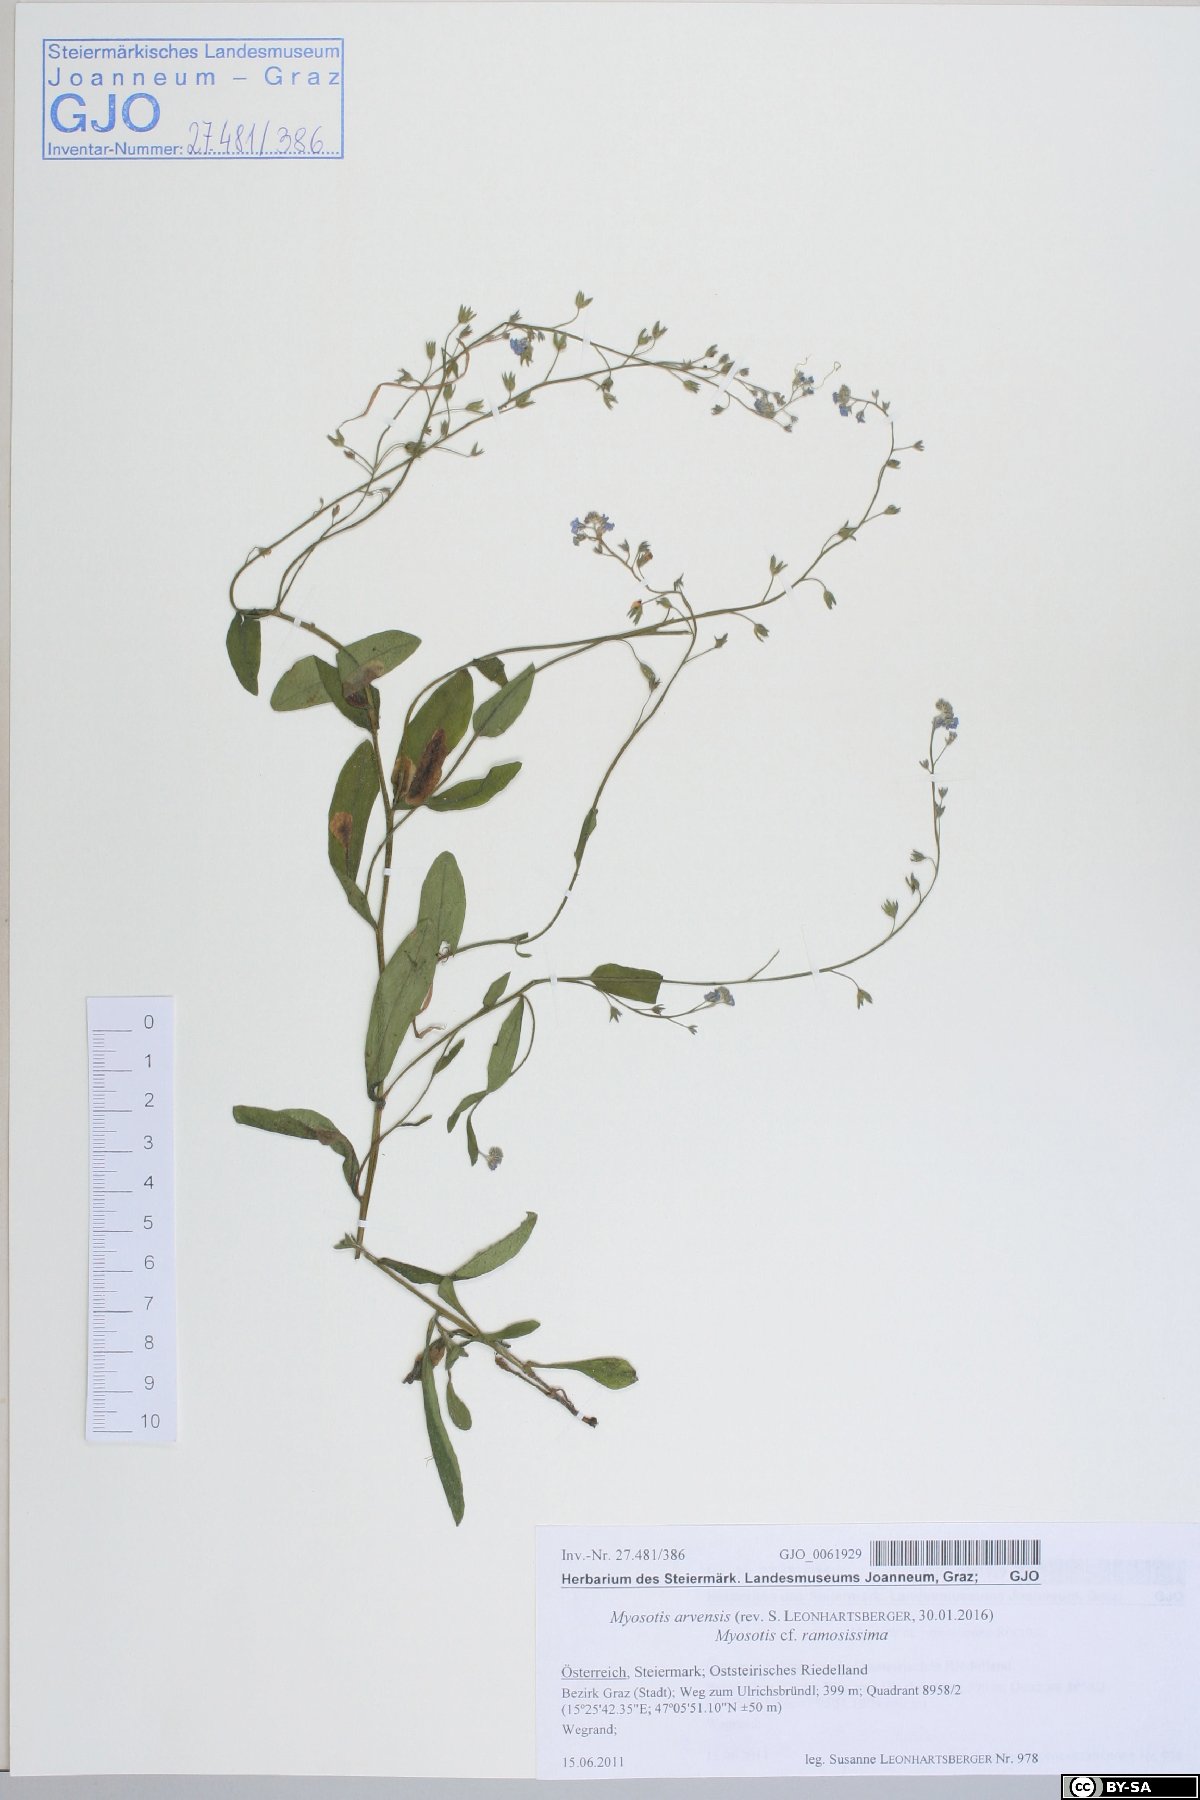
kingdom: Plantae
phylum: Tracheophyta
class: Magnoliopsida
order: Boraginales
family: Boraginaceae
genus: Myosotis
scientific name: Myosotis arvensis
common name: Field forget-me-not
